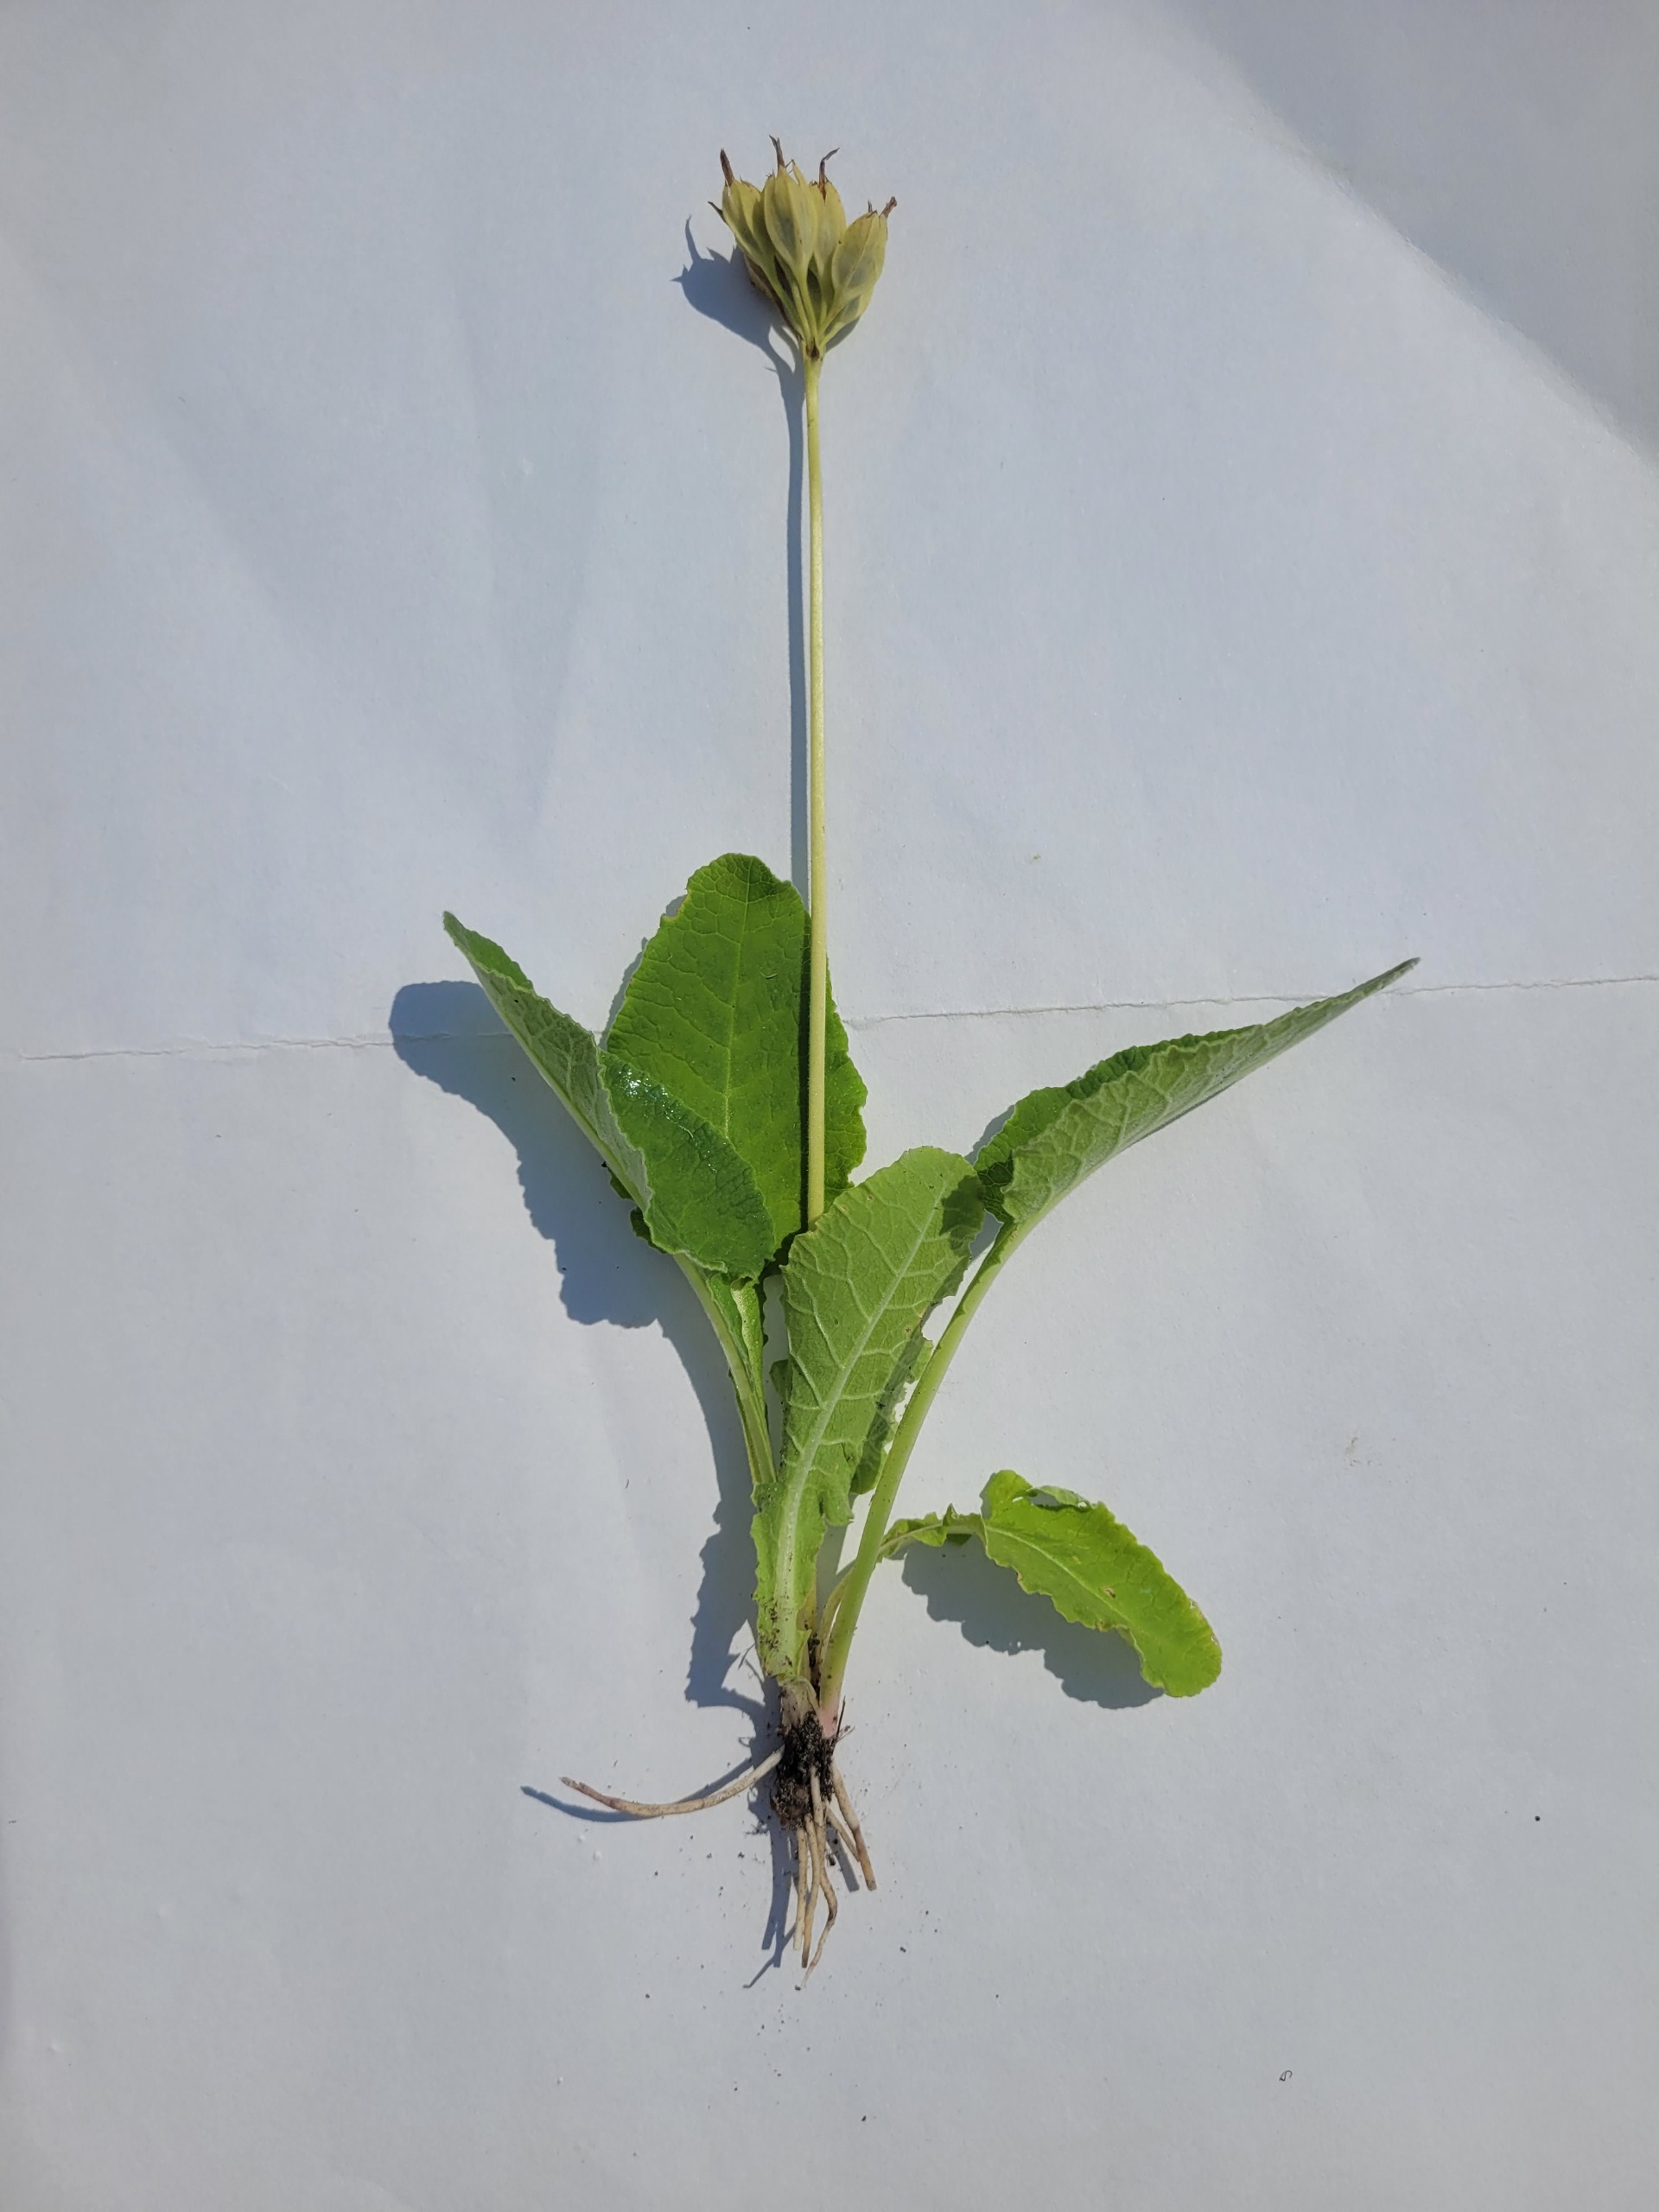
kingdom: Plantae
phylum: Tracheophyta
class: Magnoliopsida
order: Ericales
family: Primulaceae
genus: Primula
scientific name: Primula veris
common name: Hulkravet kodriver
